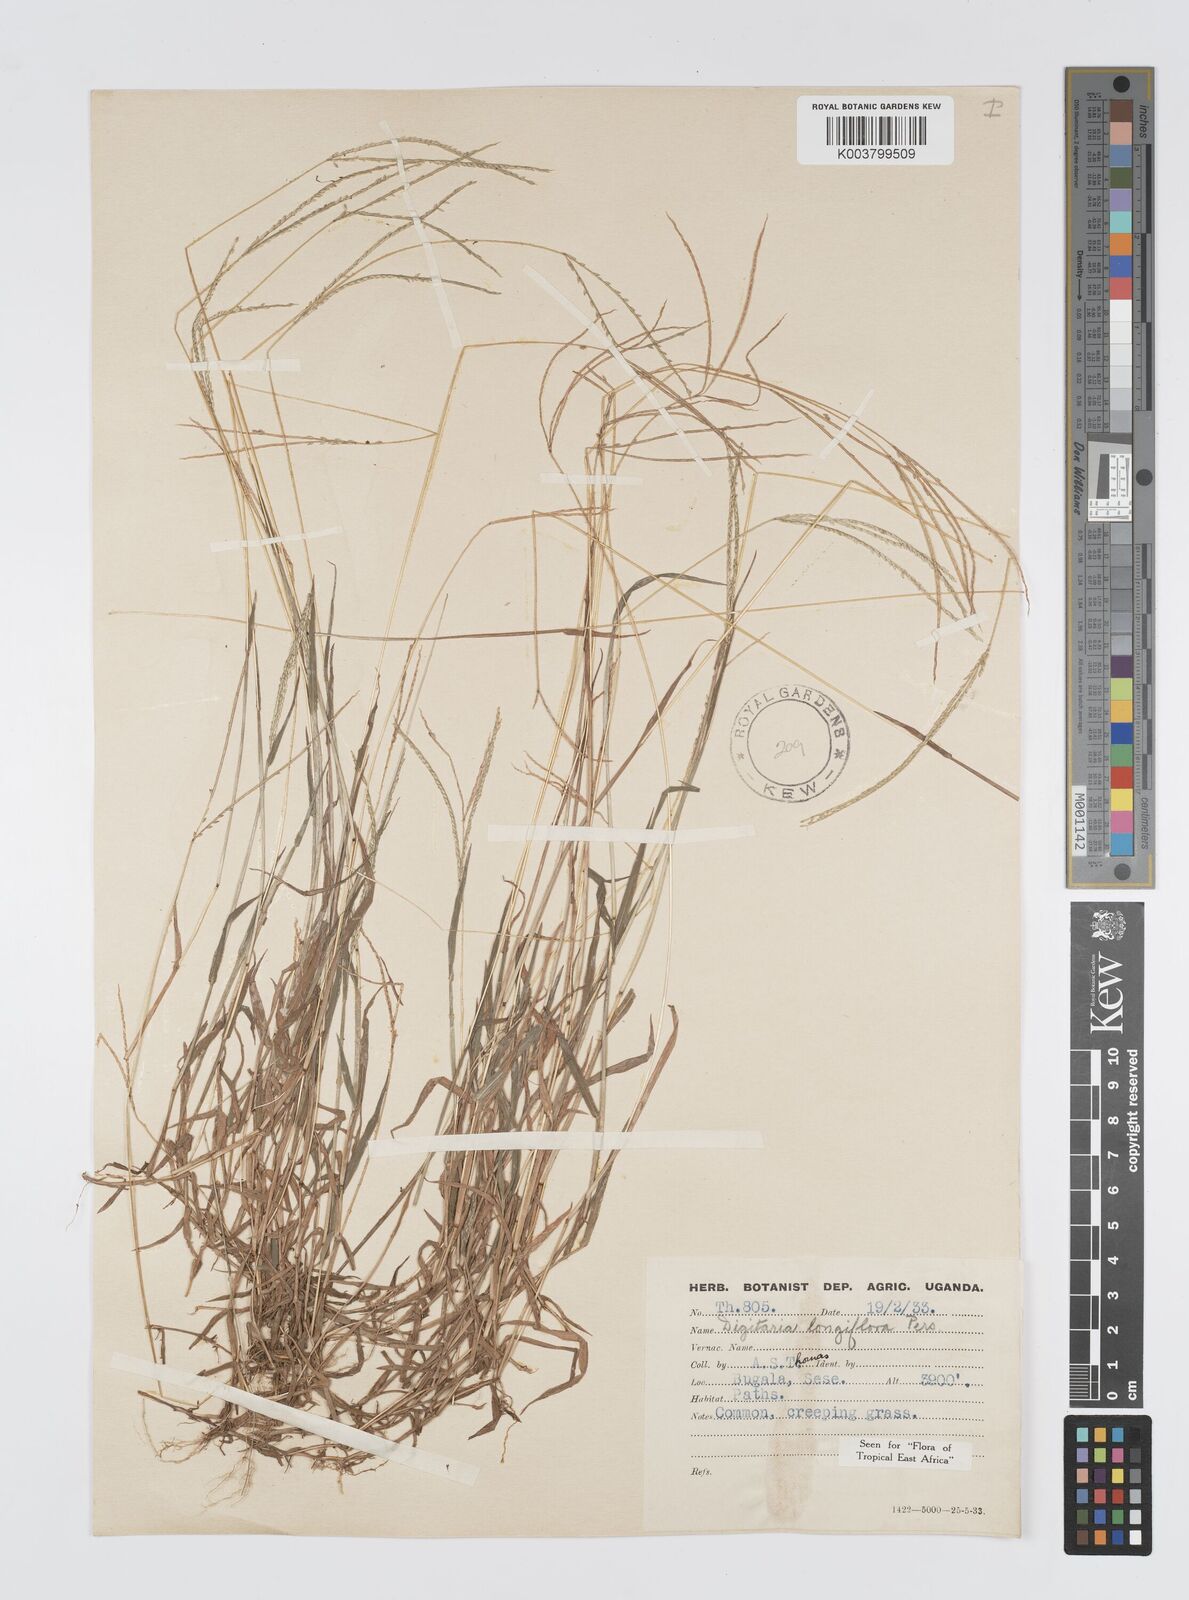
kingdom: Plantae
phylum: Tracheophyta
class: Liliopsida
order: Poales
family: Poaceae
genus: Digitaria
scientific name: Digitaria longiflora
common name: Wire crabgrass
